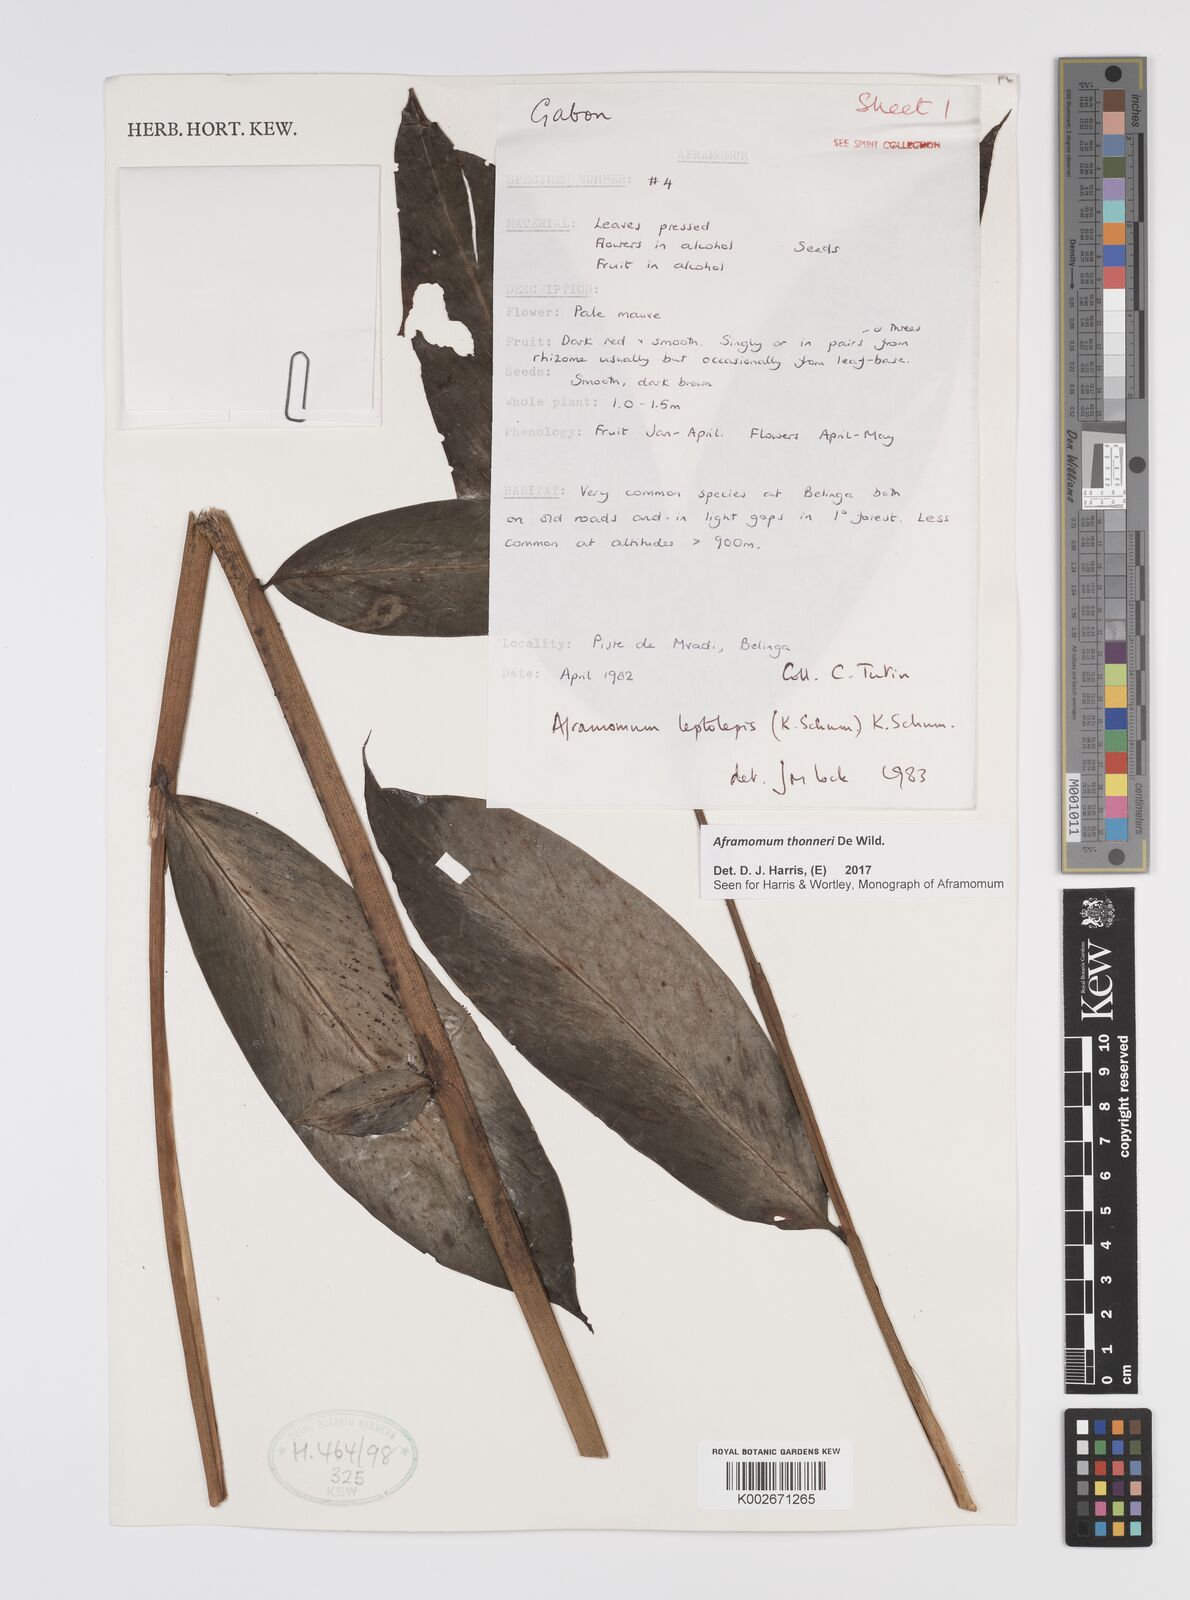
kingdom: Plantae
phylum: Tracheophyta
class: Liliopsida
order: Zingiberales
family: Zingiberaceae
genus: Aframomum
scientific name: Aframomum thonneri
